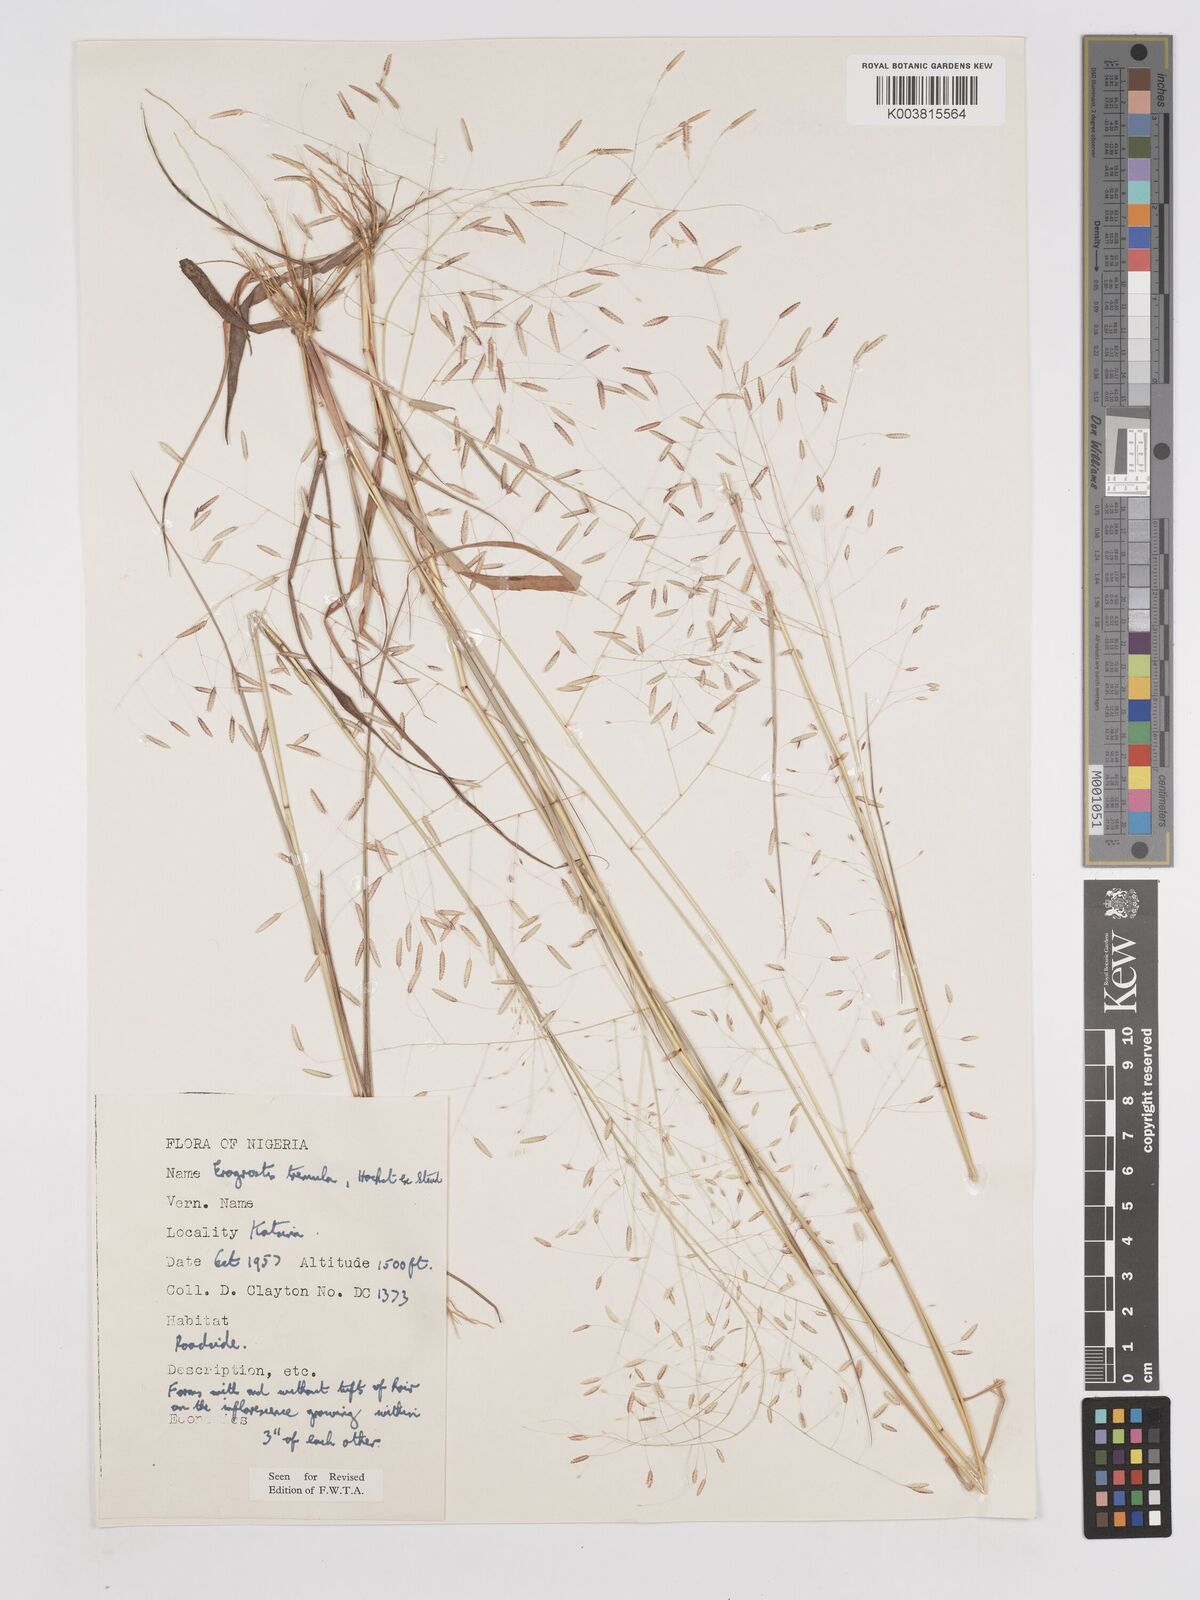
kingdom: Plantae
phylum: Tracheophyta
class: Liliopsida
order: Poales
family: Poaceae
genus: Eragrostis
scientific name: Eragrostis tremula
